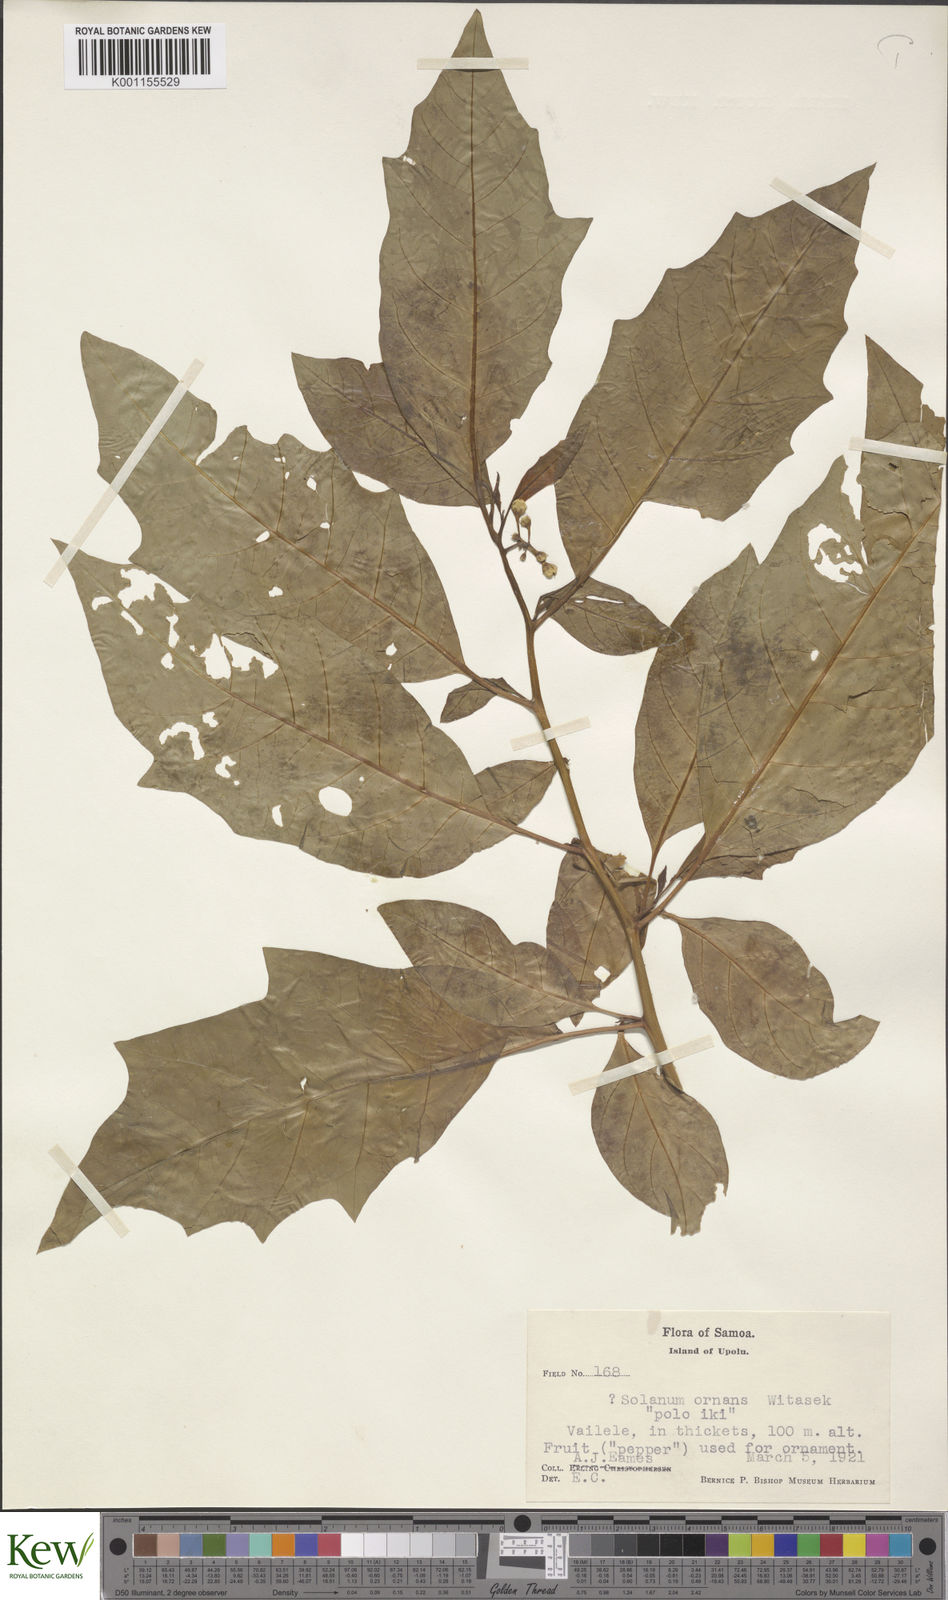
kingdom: Plantae
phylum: Tracheophyta
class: Magnoliopsida
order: Solanales
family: Solanaceae
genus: Solanum
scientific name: Solanum viride
